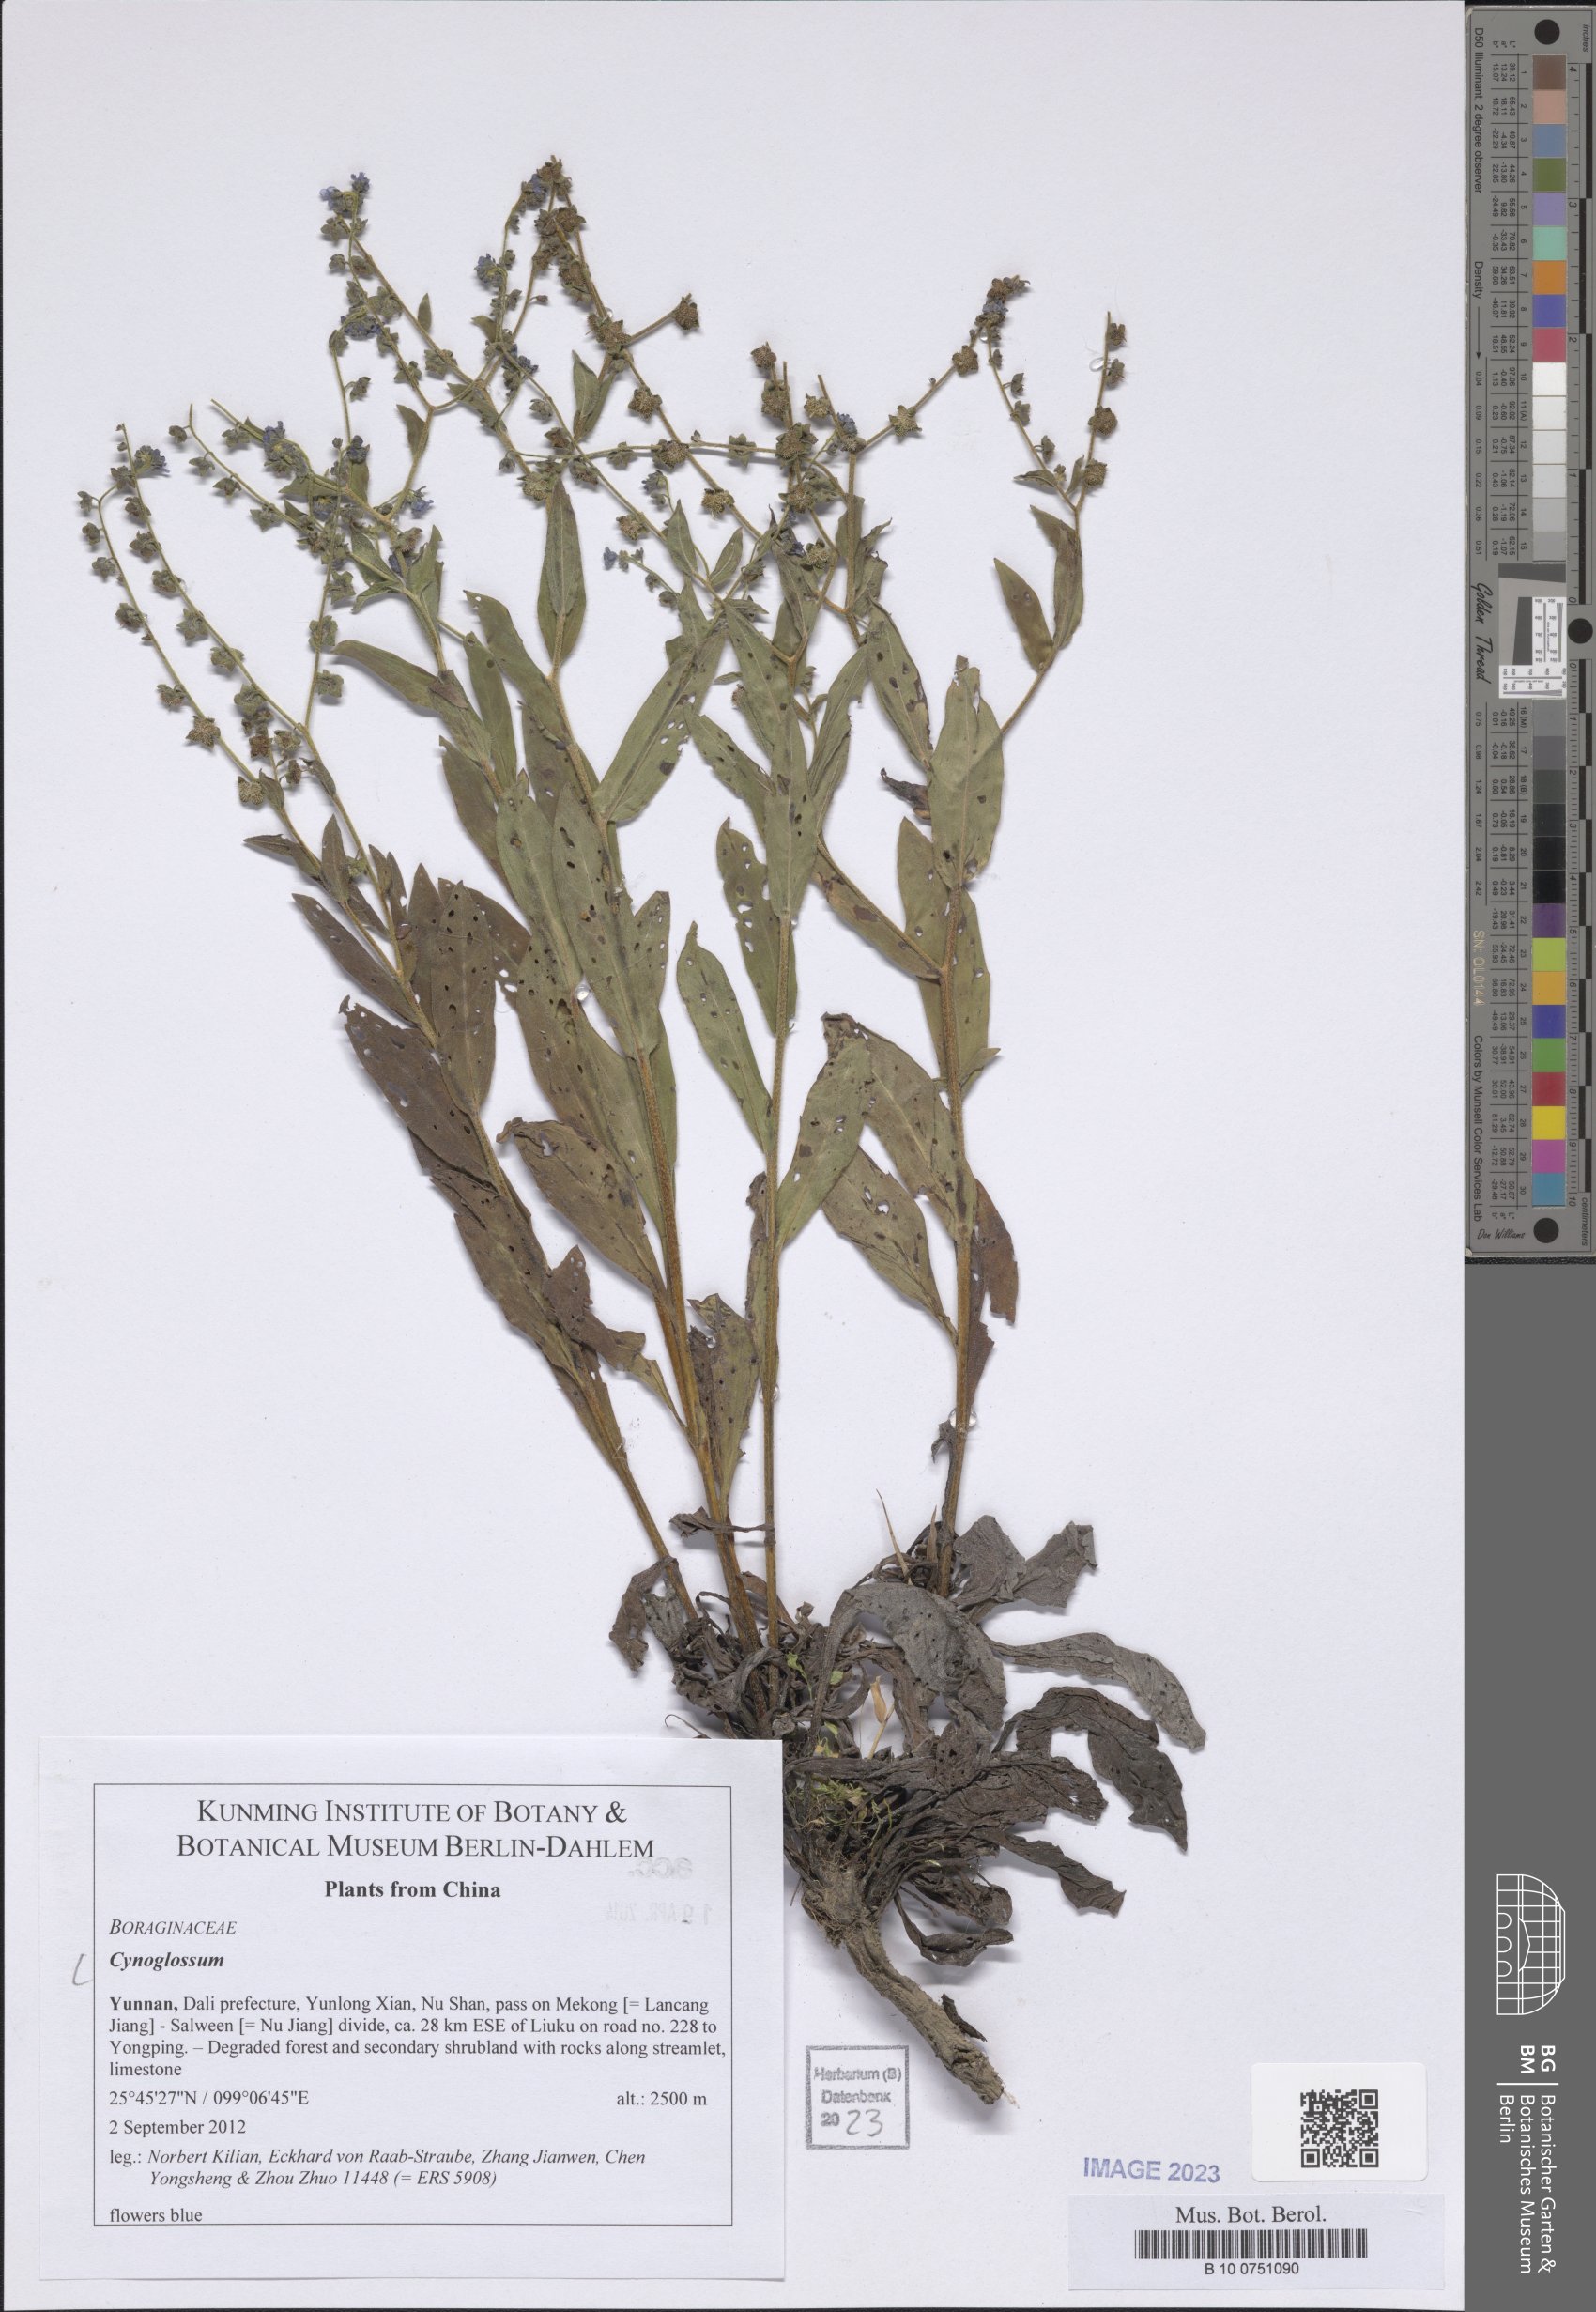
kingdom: Plantae
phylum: Tracheophyta
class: Magnoliopsida
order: Boraginales
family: Boraginaceae
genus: Cynoglossum
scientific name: Cynoglossum
